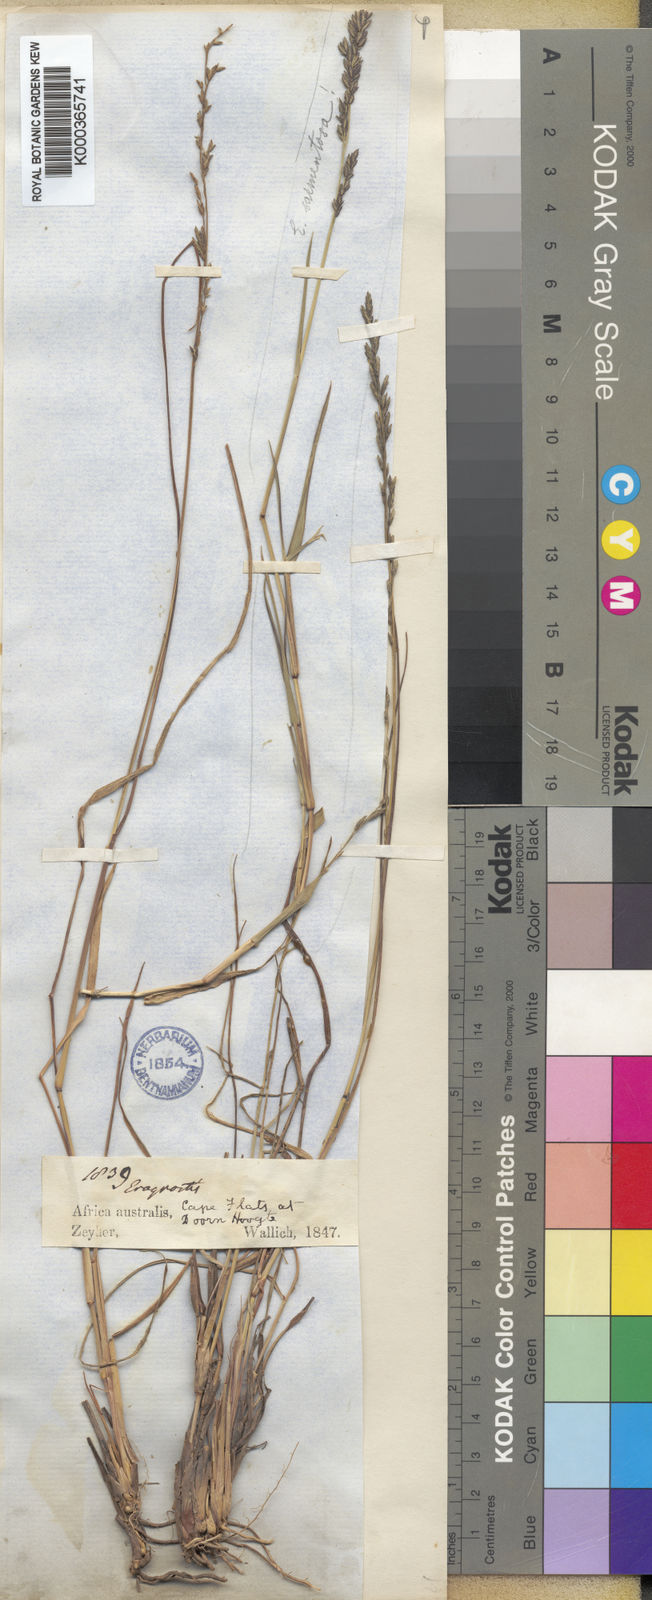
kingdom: Plantae
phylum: Tracheophyta
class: Liliopsida
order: Poales
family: Poaceae
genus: Eragrostis
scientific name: Eragrostis elatior
